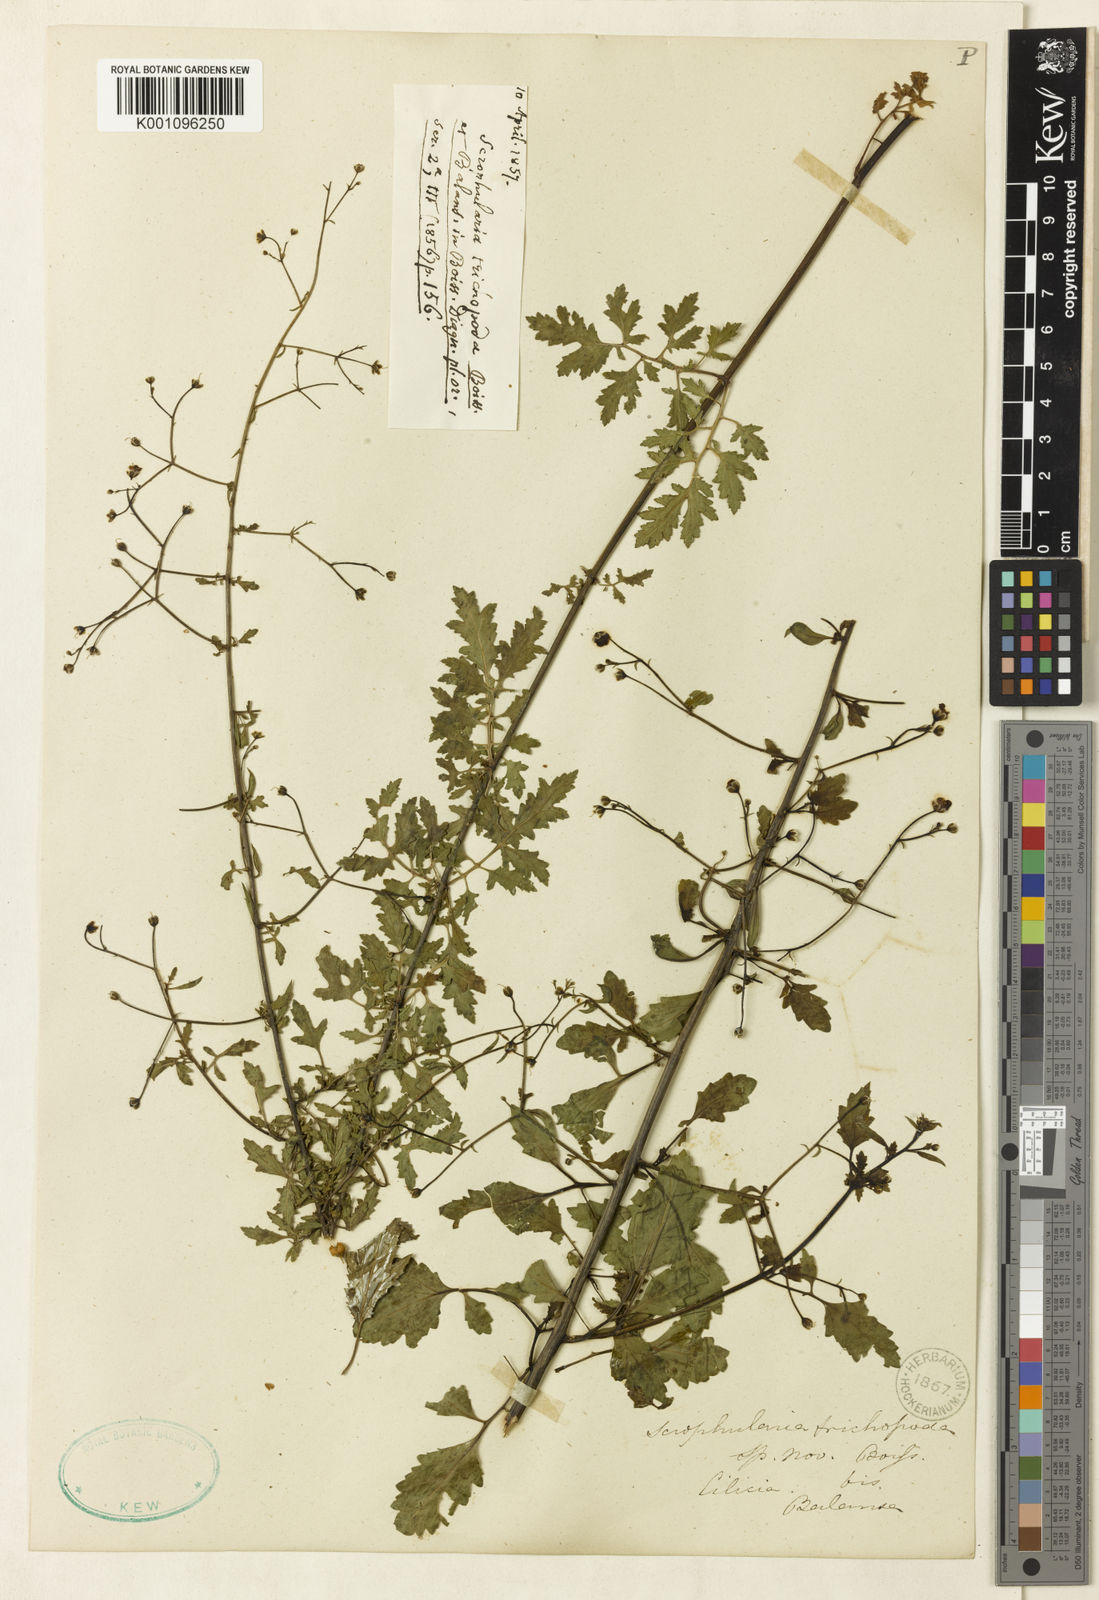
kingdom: Plantae
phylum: Tracheophyta
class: Magnoliopsida
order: Lamiales
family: Scrophulariaceae
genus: Scrophularia
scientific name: Scrophularia trichopoda
